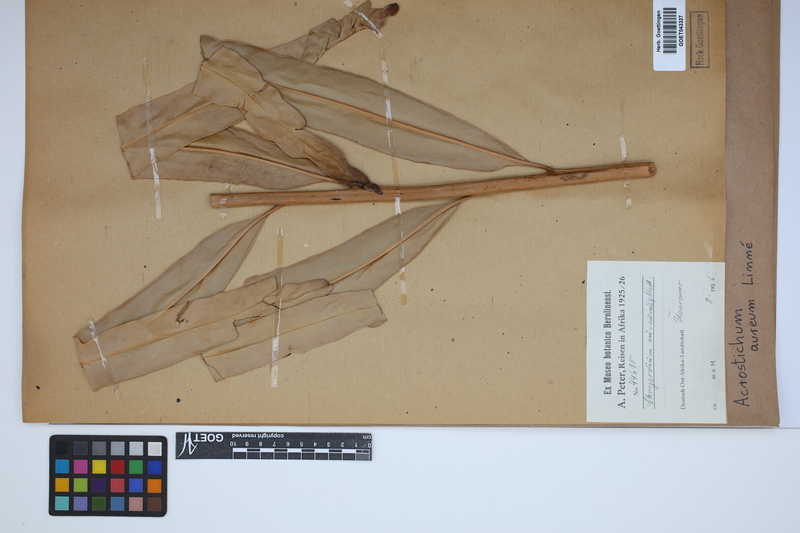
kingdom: Plantae
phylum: Tracheophyta
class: Polypodiopsida
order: Polypodiales
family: Pteridaceae
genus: Acrostichum
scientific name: Acrostichum aureum
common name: Leather fern
